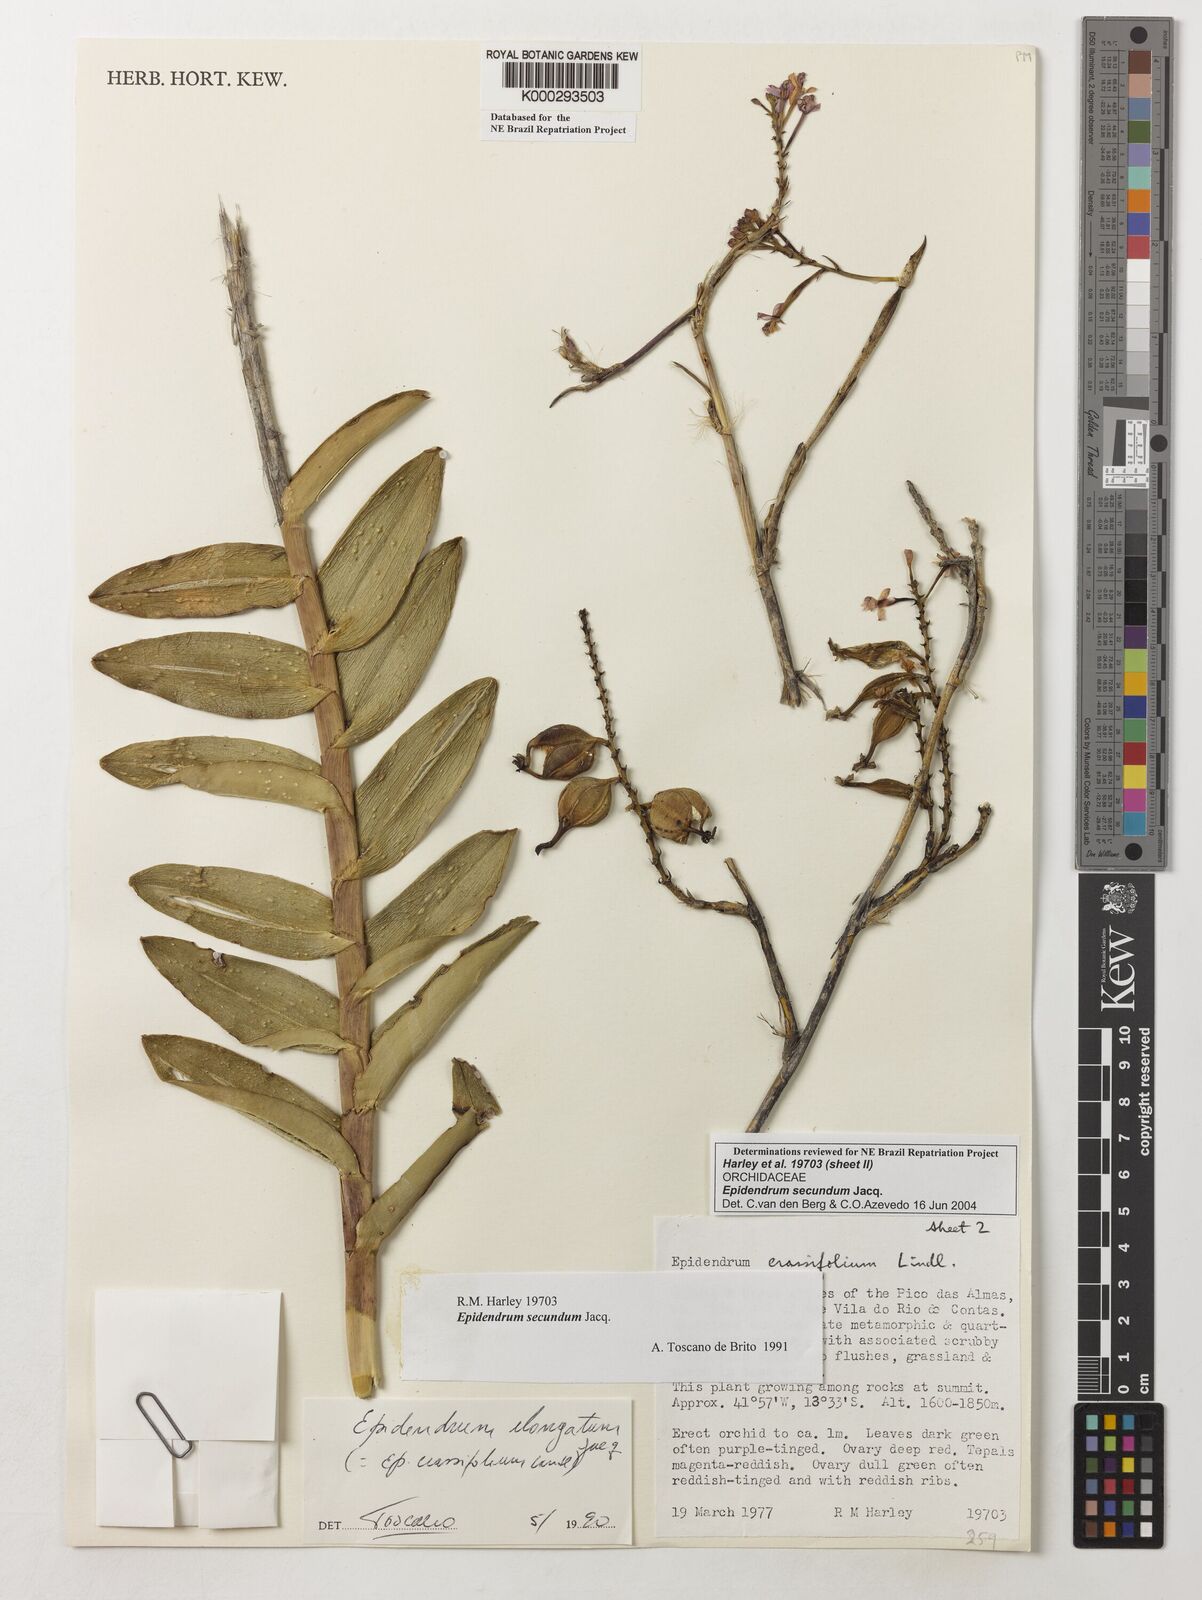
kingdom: Plantae
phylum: Tracheophyta
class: Liliopsida
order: Asparagales
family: Orchidaceae
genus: Epidendrum
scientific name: Epidendrum secundum
